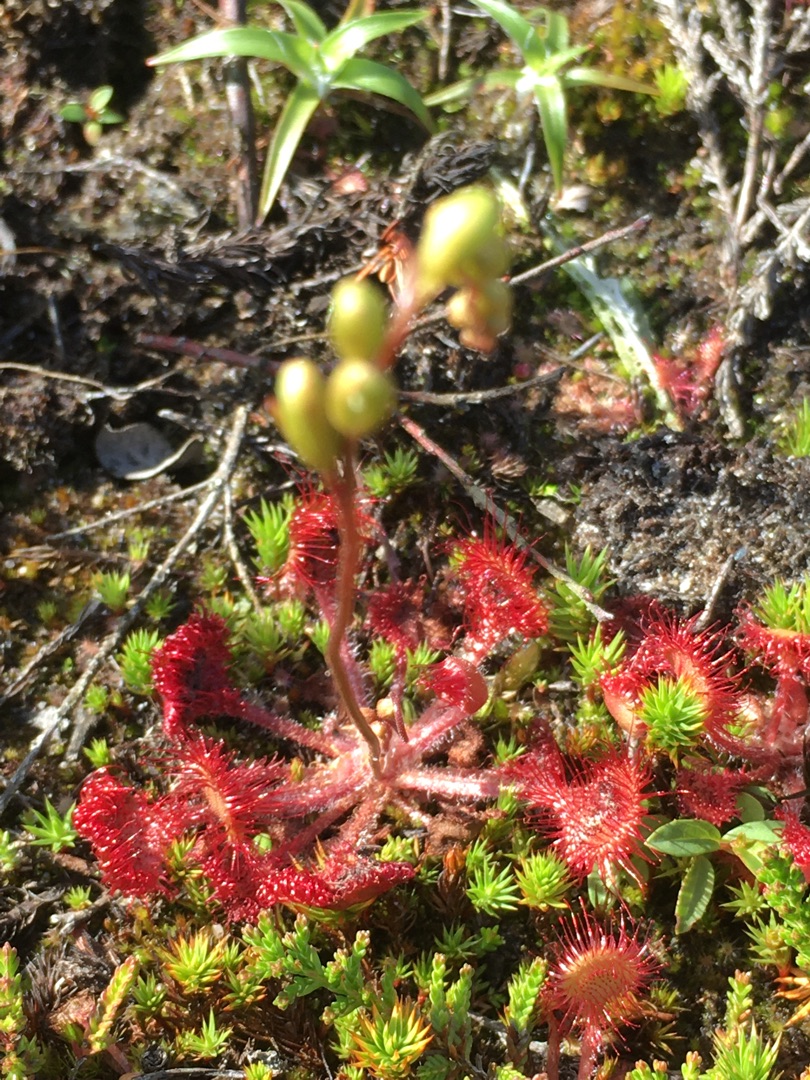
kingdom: Plantae
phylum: Tracheophyta
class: Magnoliopsida
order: Caryophyllales
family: Droseraceae
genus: Drosera
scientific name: Drosera rotundifolia
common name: Rundbladet soldug
